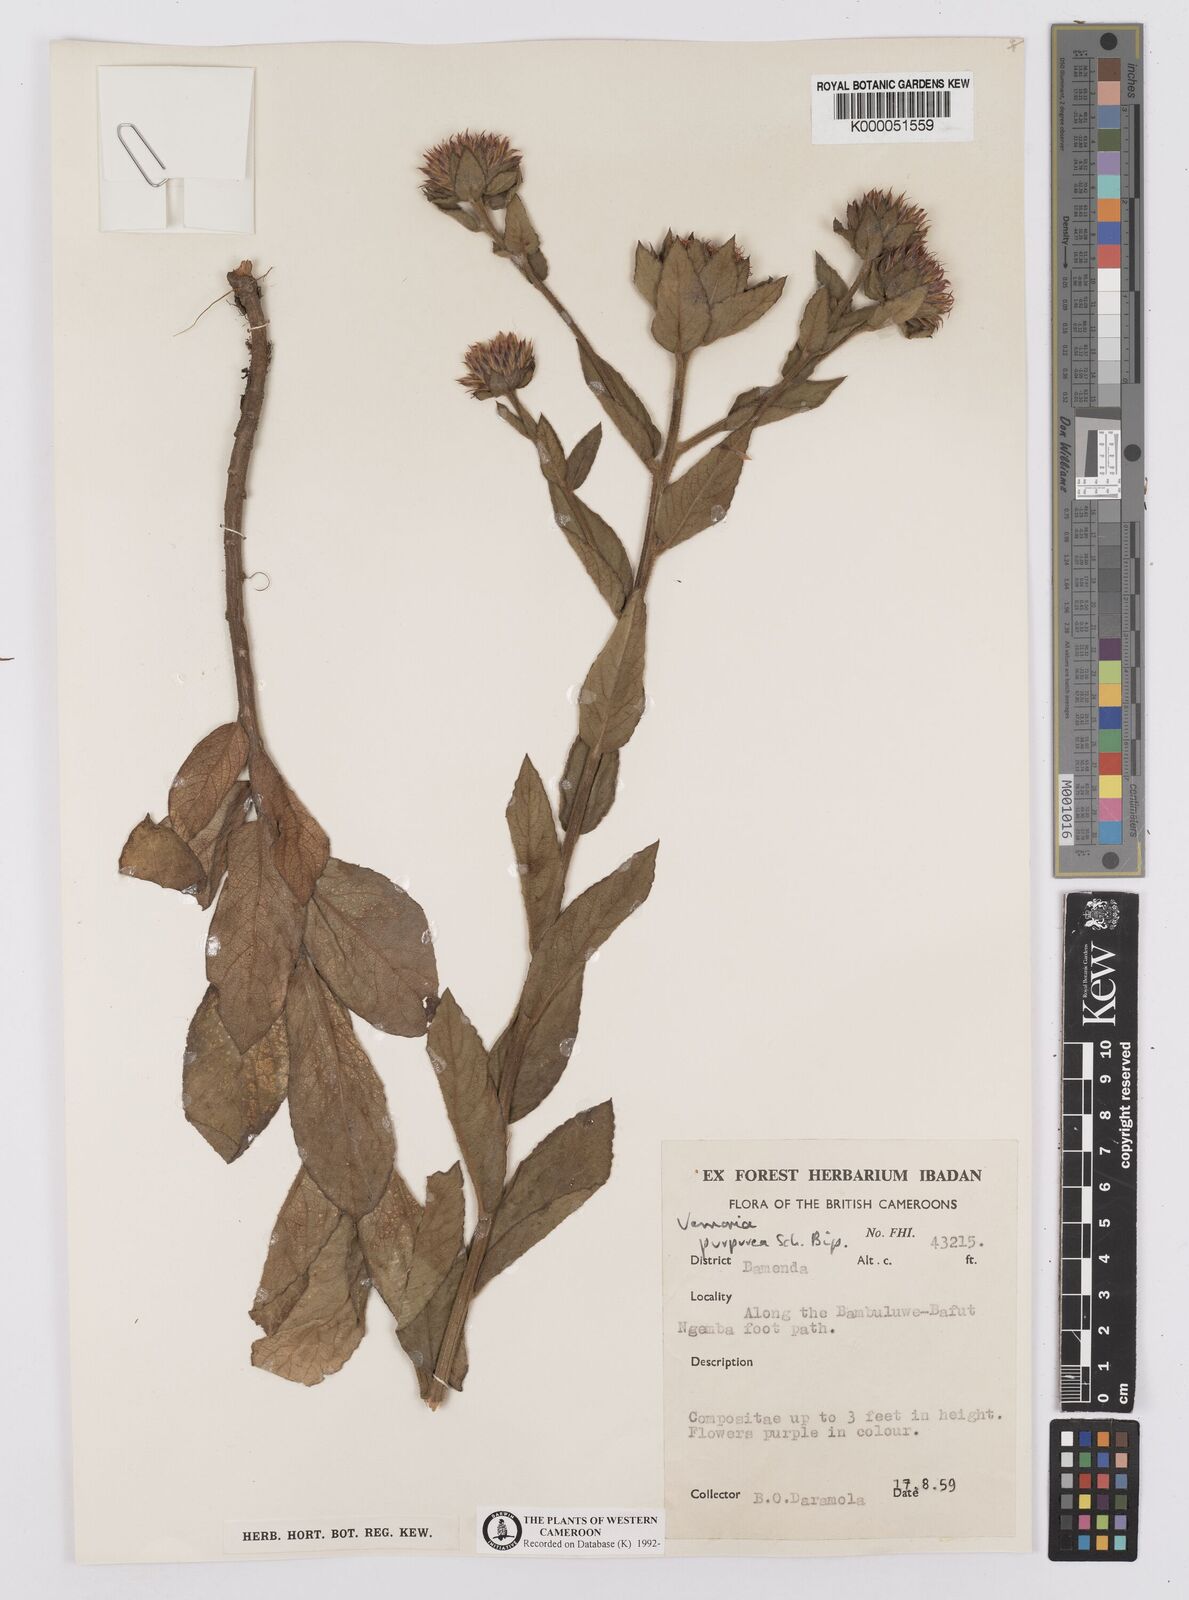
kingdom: Plantae
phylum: Tracheophyta
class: Magnoliopsida
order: Asterales
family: Asteraceae
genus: Vernonia
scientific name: Vernonia
